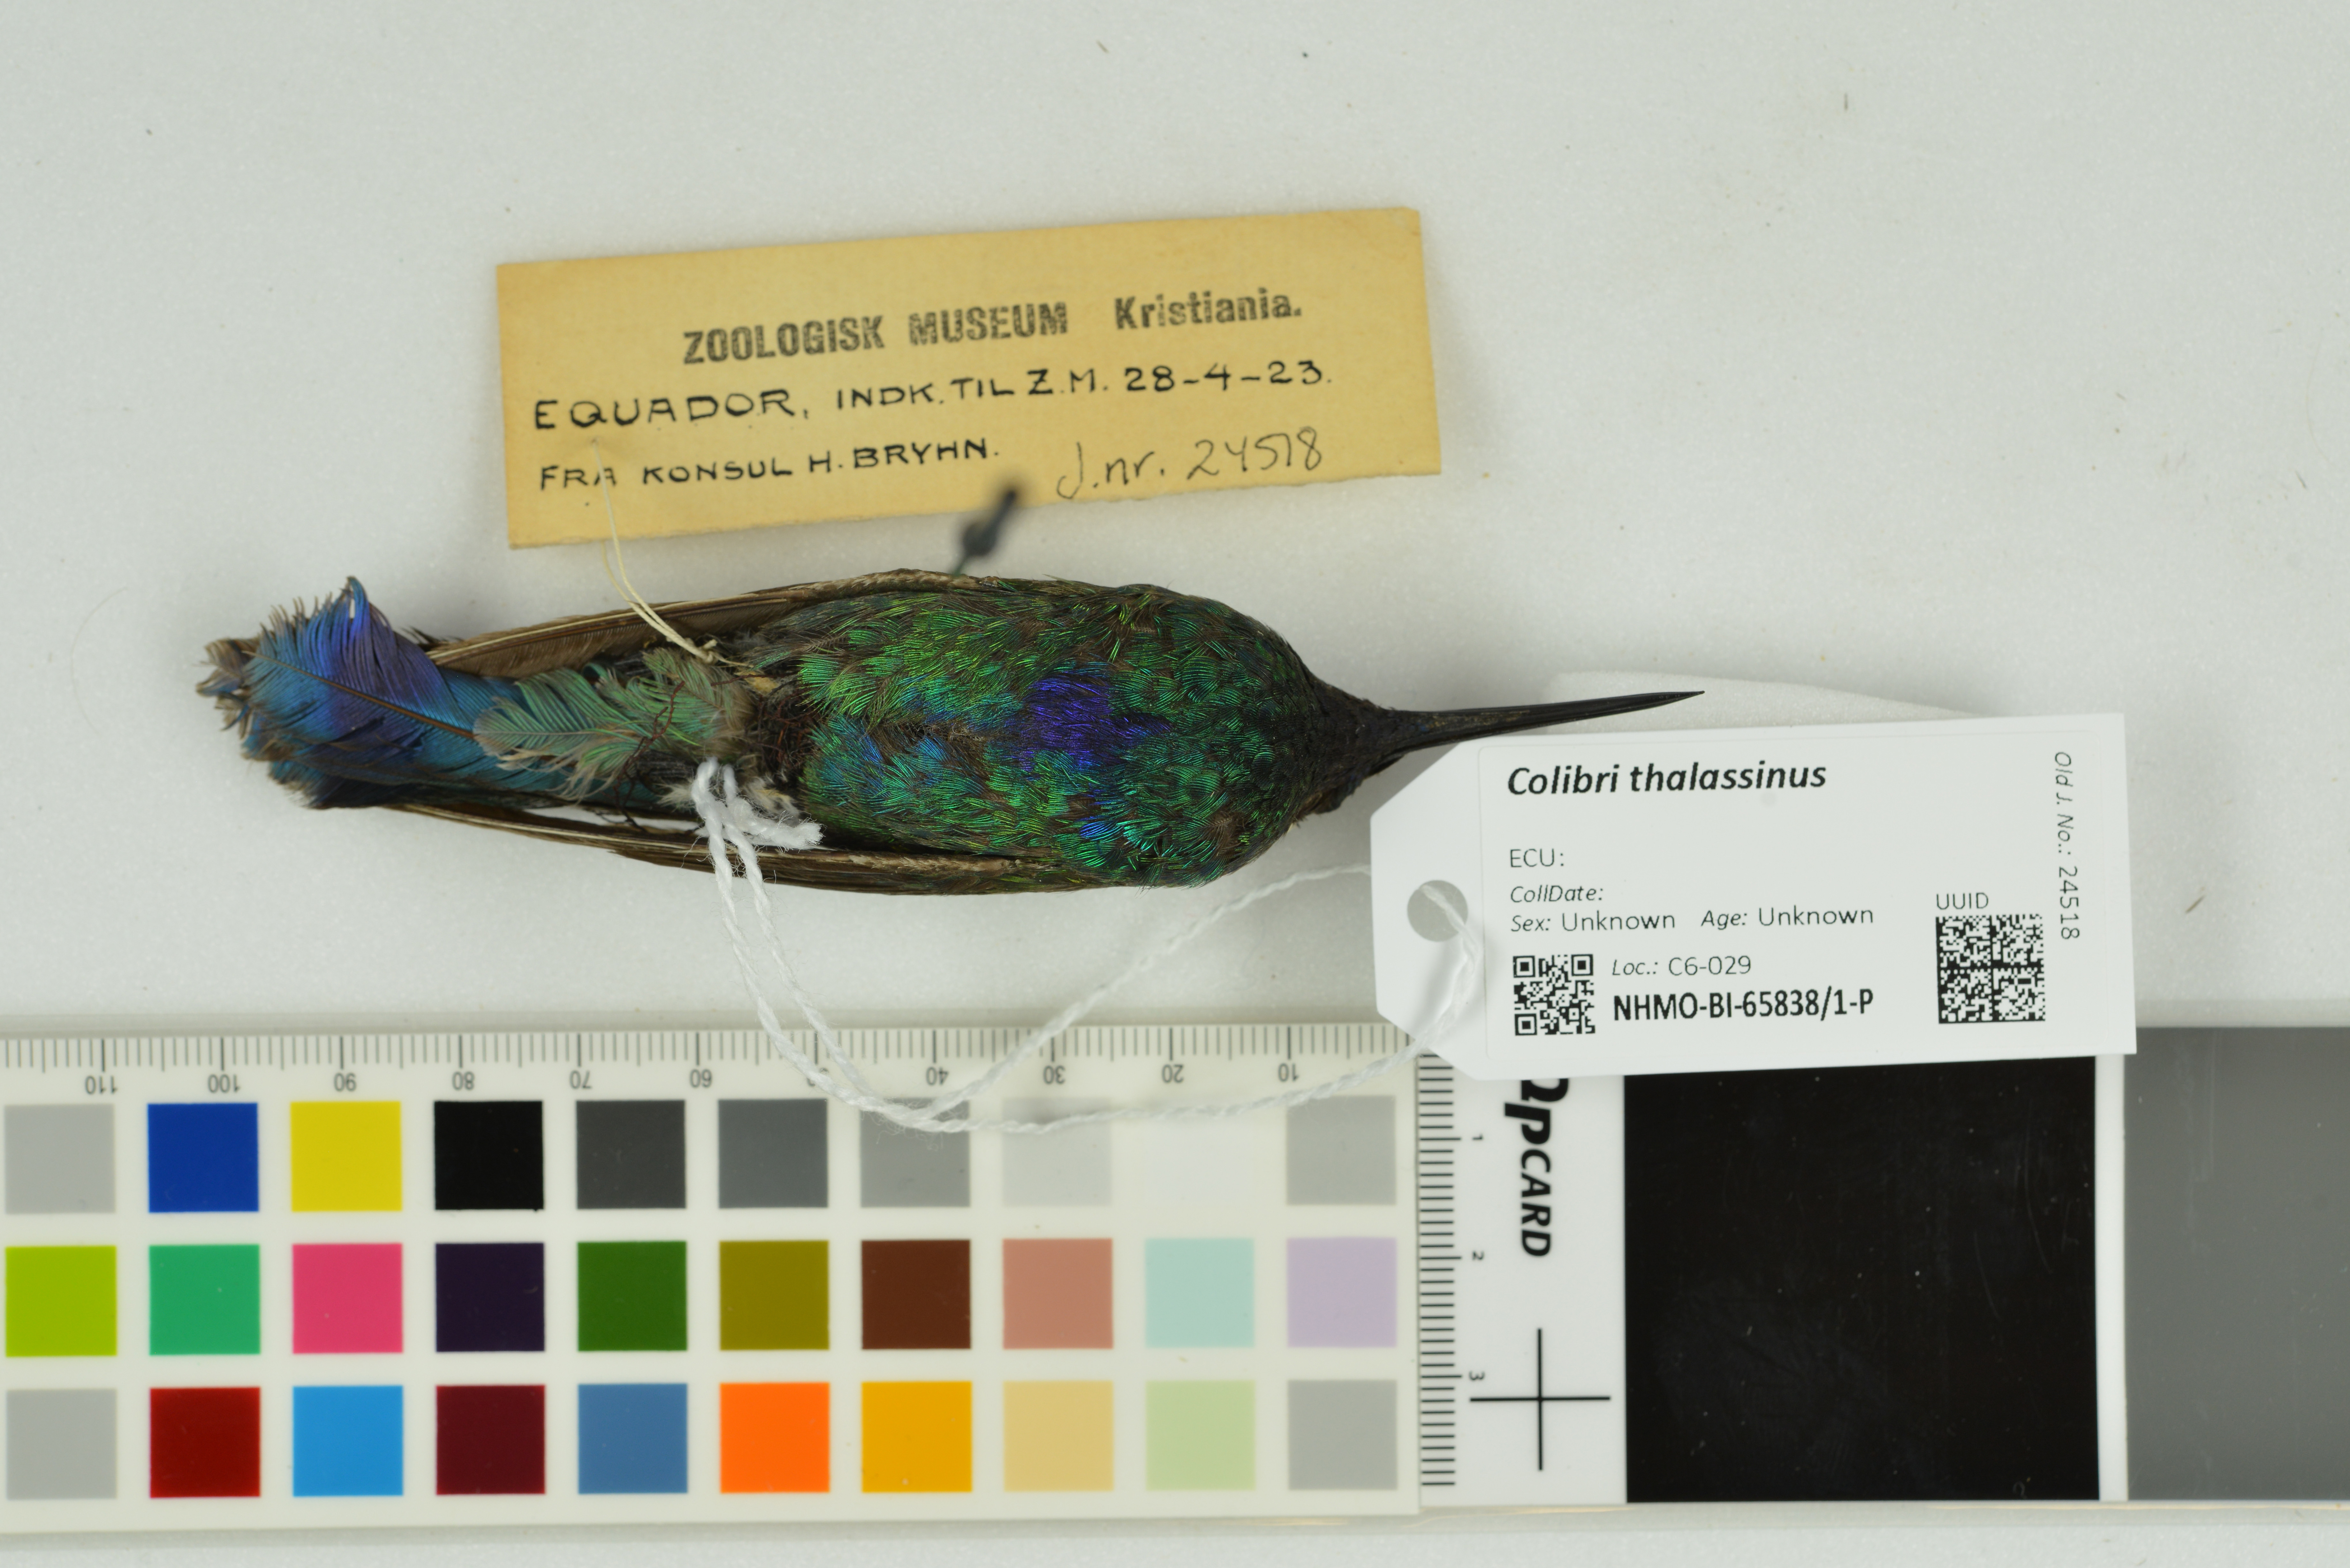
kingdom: Animalia
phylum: Chordata
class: Aves
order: Apodiformes
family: Trochilidae
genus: Colibri
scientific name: Colibri thalassinus
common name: Green violetear
